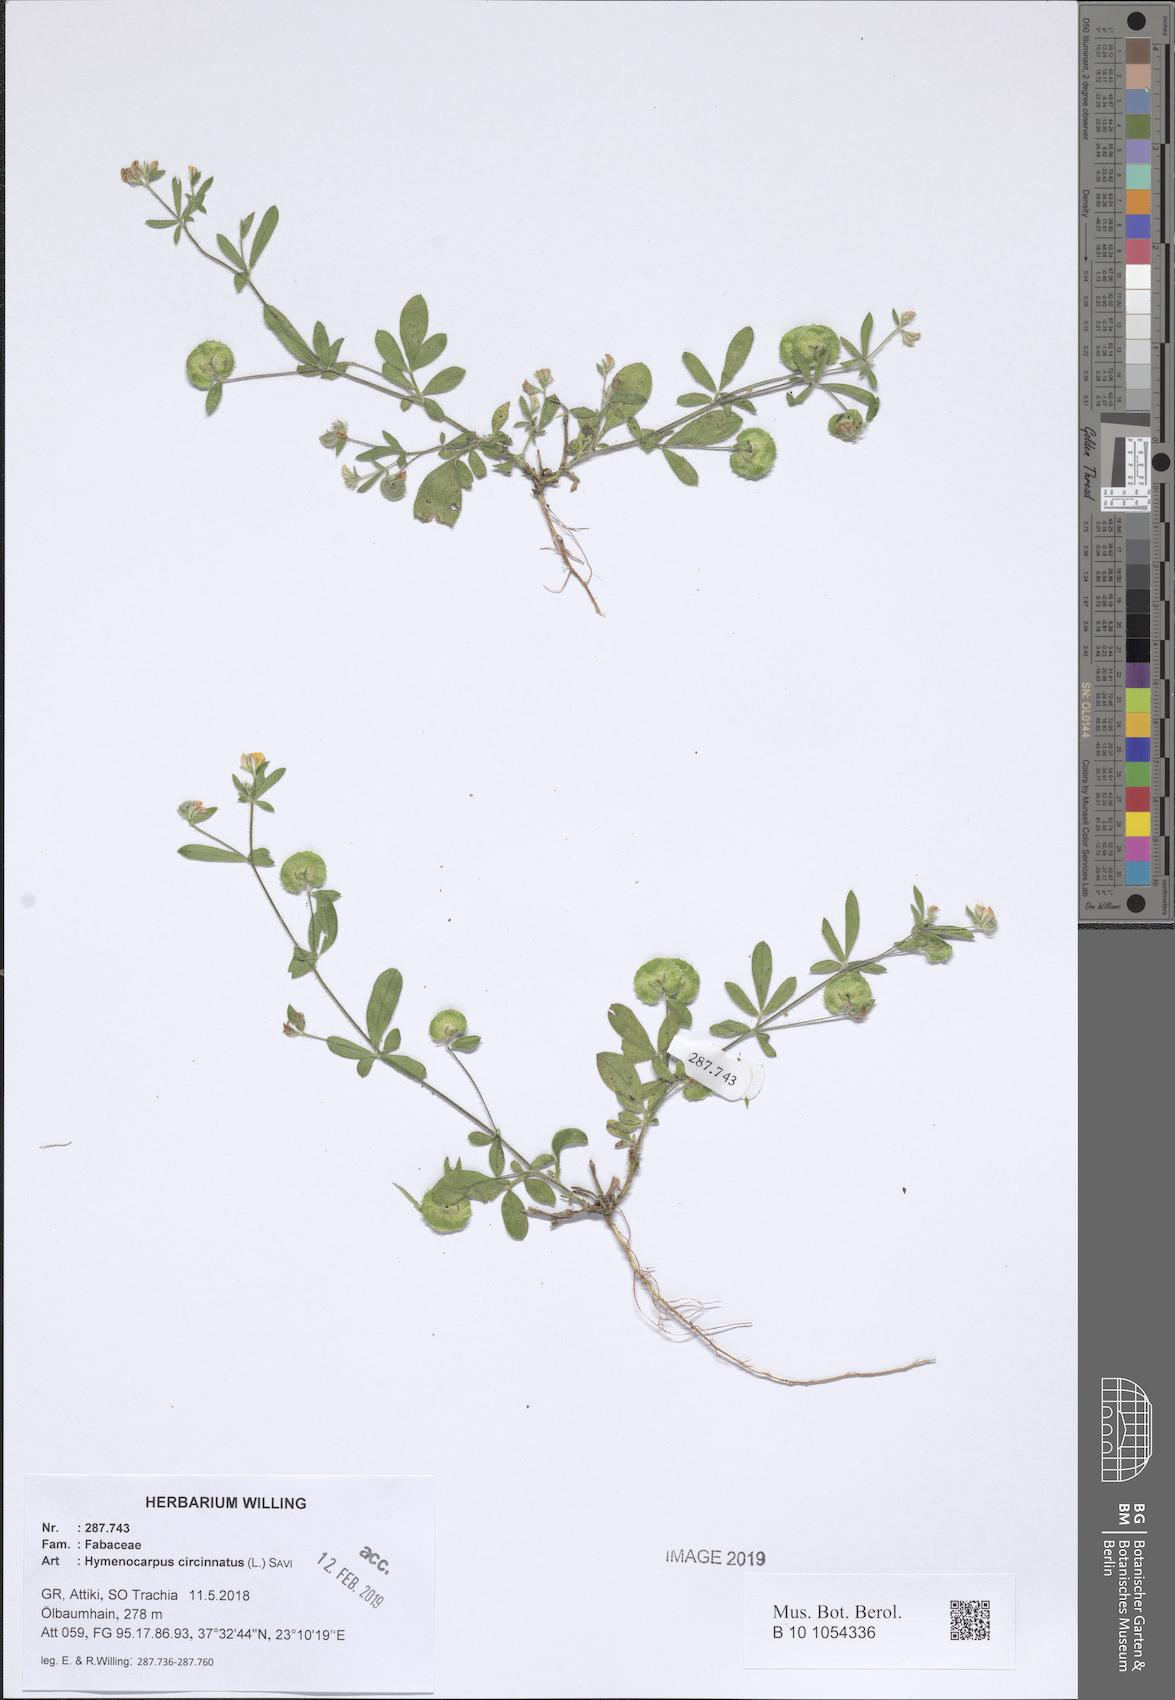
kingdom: Plantae
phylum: Tracheophyta
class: Magnoliopsida
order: Fabales
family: Fabaceae
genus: Anthyllis
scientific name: Anthyllis circinnata
